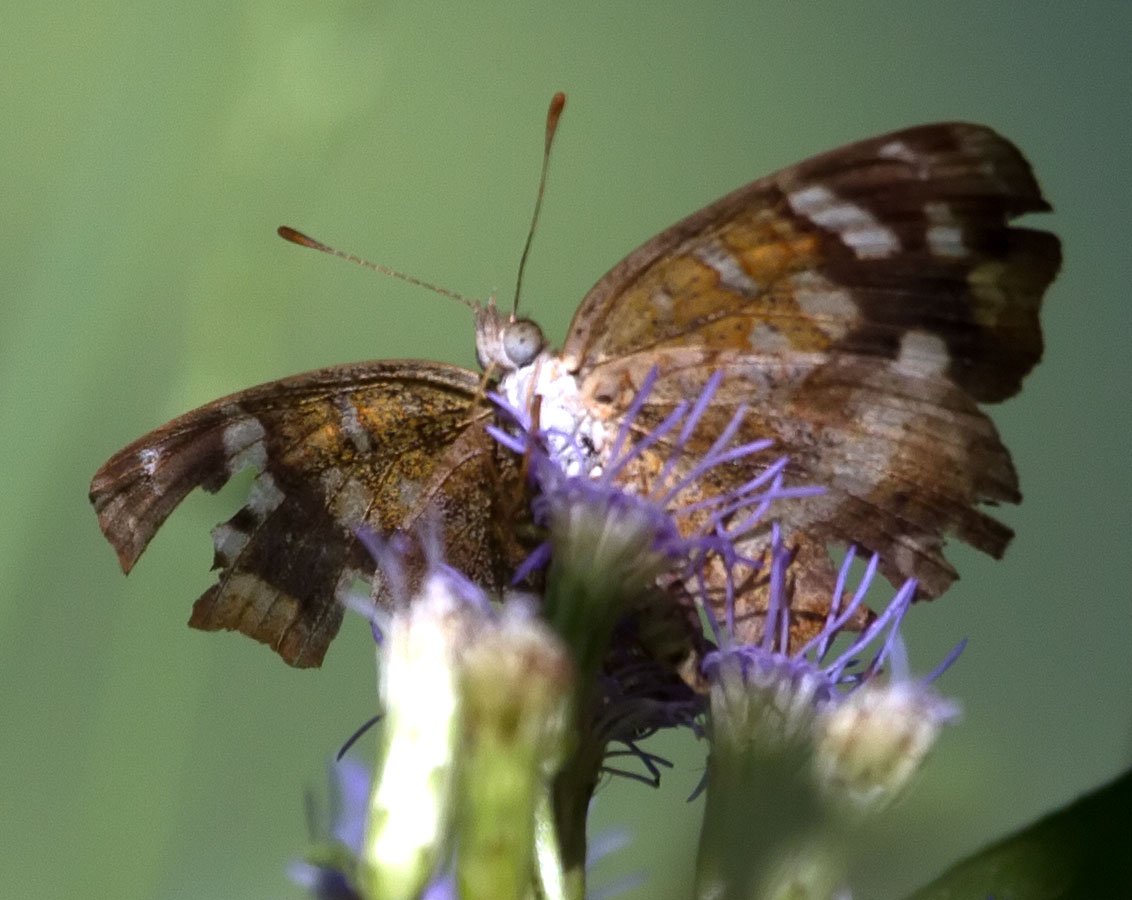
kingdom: Animalia
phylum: Arthropoda
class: Insecta
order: Lepidoptera
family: Nymphalidae
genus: Anthanassa
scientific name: Anthanassa tulcis
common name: Pale-banded Crescent
